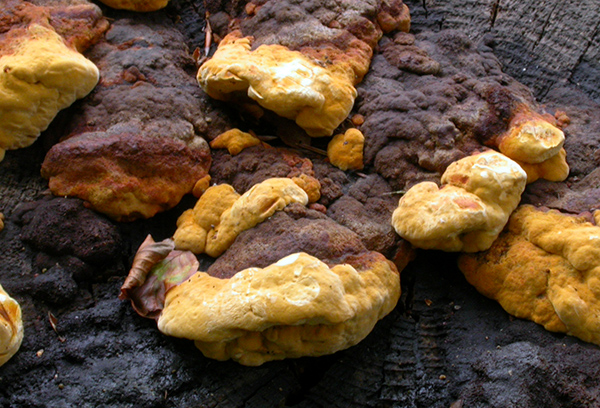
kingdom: Fungi
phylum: Basidiomycota
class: Agaricomycetes
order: Gloeophyllales
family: Gloeophyllaceae
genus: Gloeophyllum
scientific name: Gloeophyllum odoratum
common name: duftende korkhat
